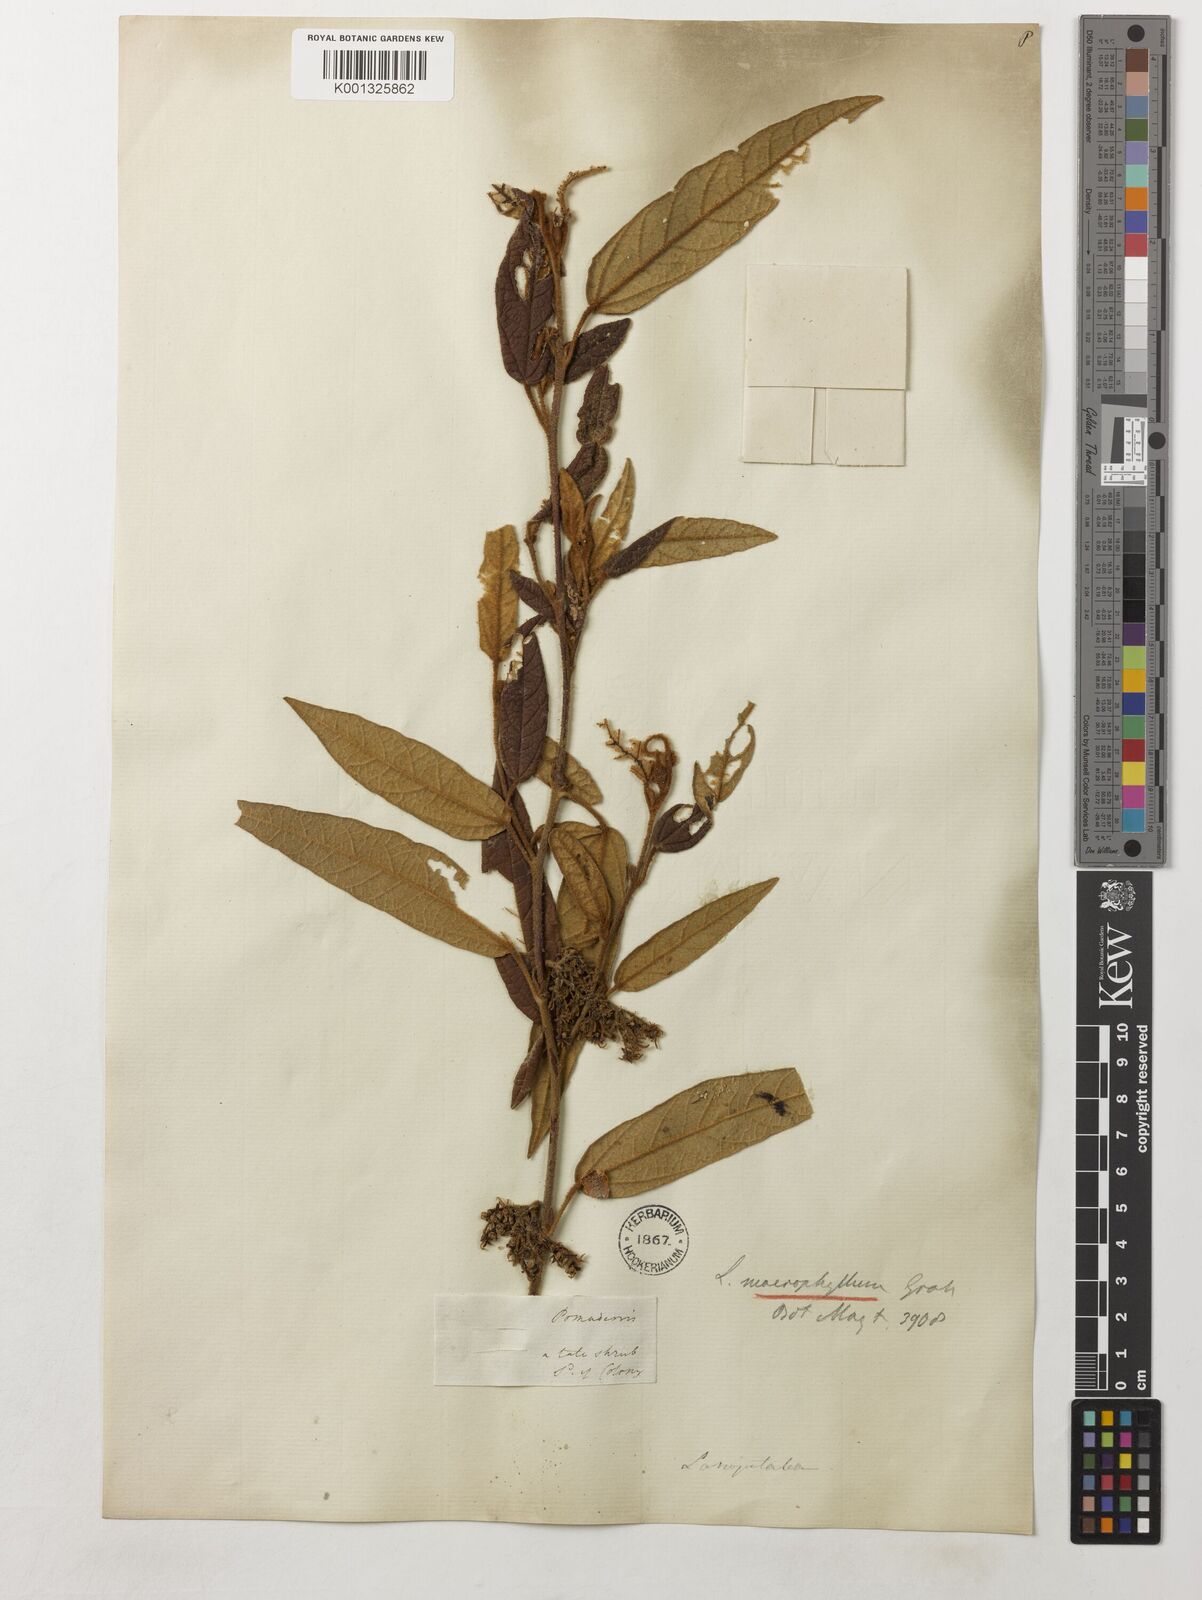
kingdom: Plantae
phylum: Tracheophyta
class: Magnoliopsida
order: Malvales
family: Malvaceae
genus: Lasiopetalum
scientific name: Lasiopetalum macrophyllum
